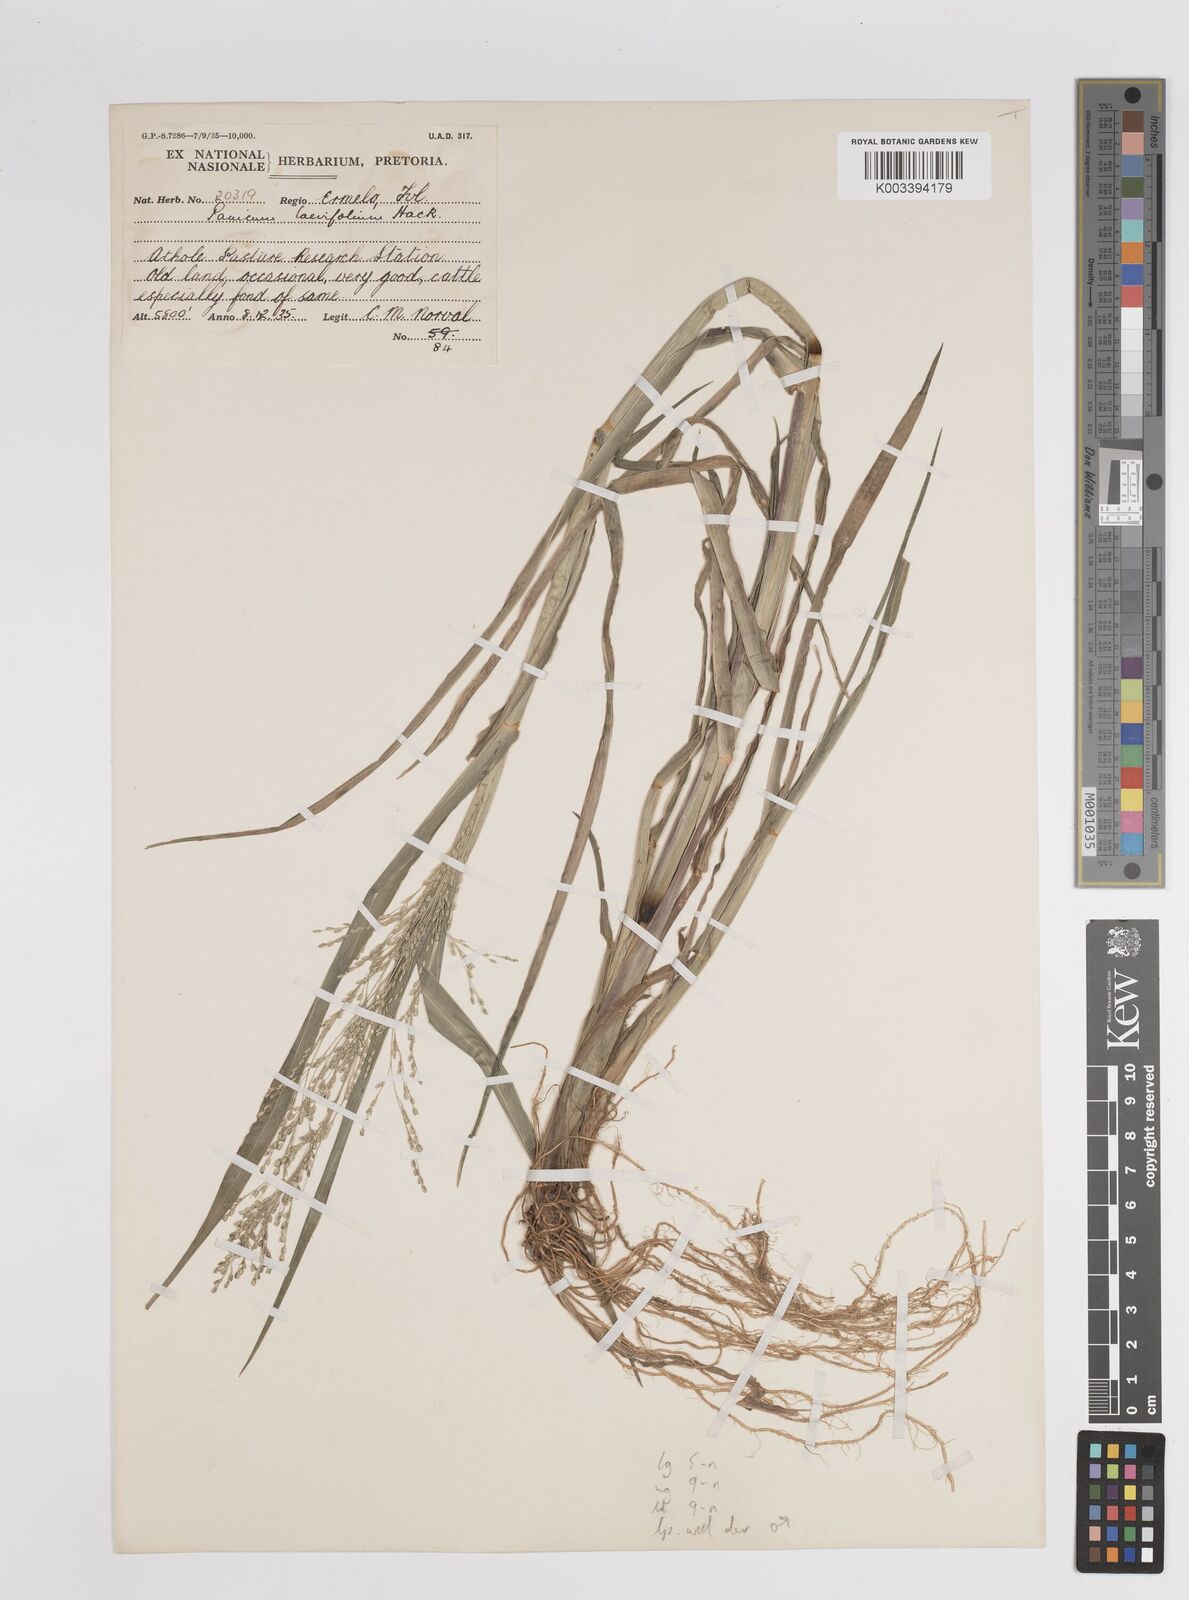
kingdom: Plantae
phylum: Tracheophyta
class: Liliopsida
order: Poales
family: Poaceae
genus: Panicum
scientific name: Panicum schinzii
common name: Sweet grass
